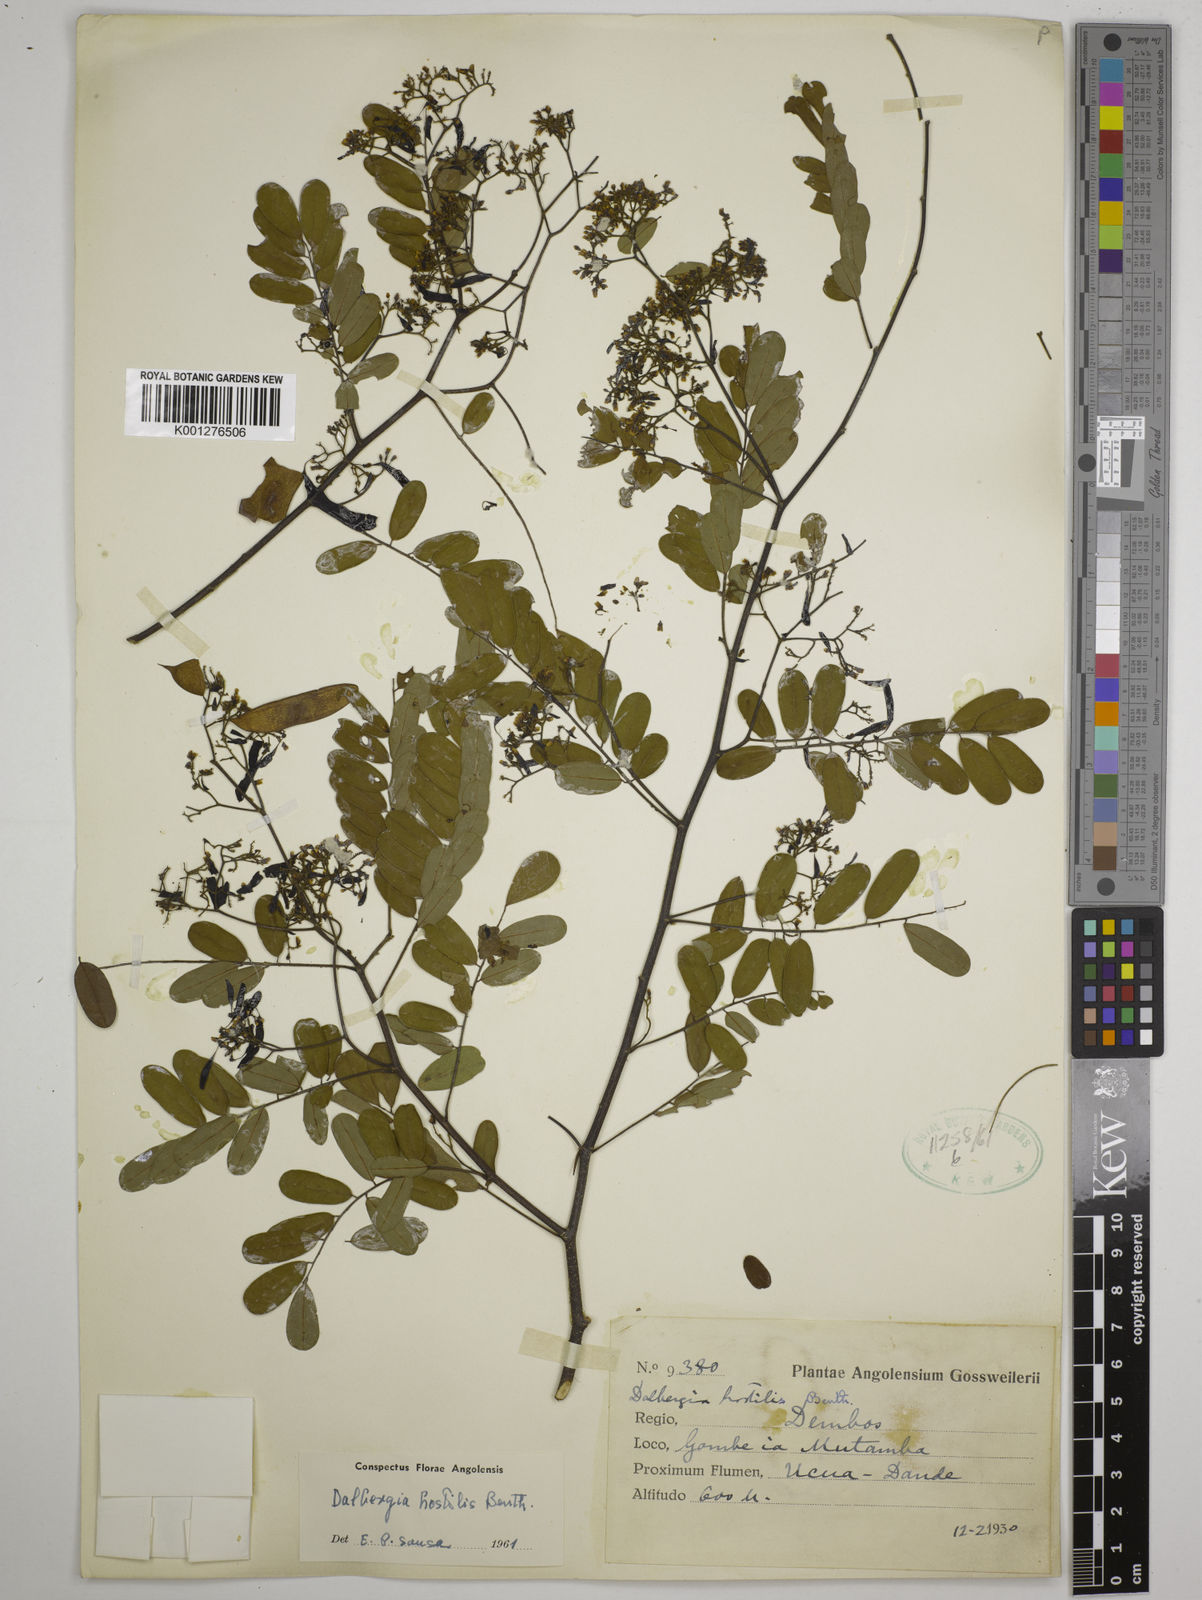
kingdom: Plantae
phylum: Tracheophyta
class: Magnoliopsida
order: Fabales
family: Fabaceae
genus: Dalbergia
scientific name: Dalbergia hostilis
